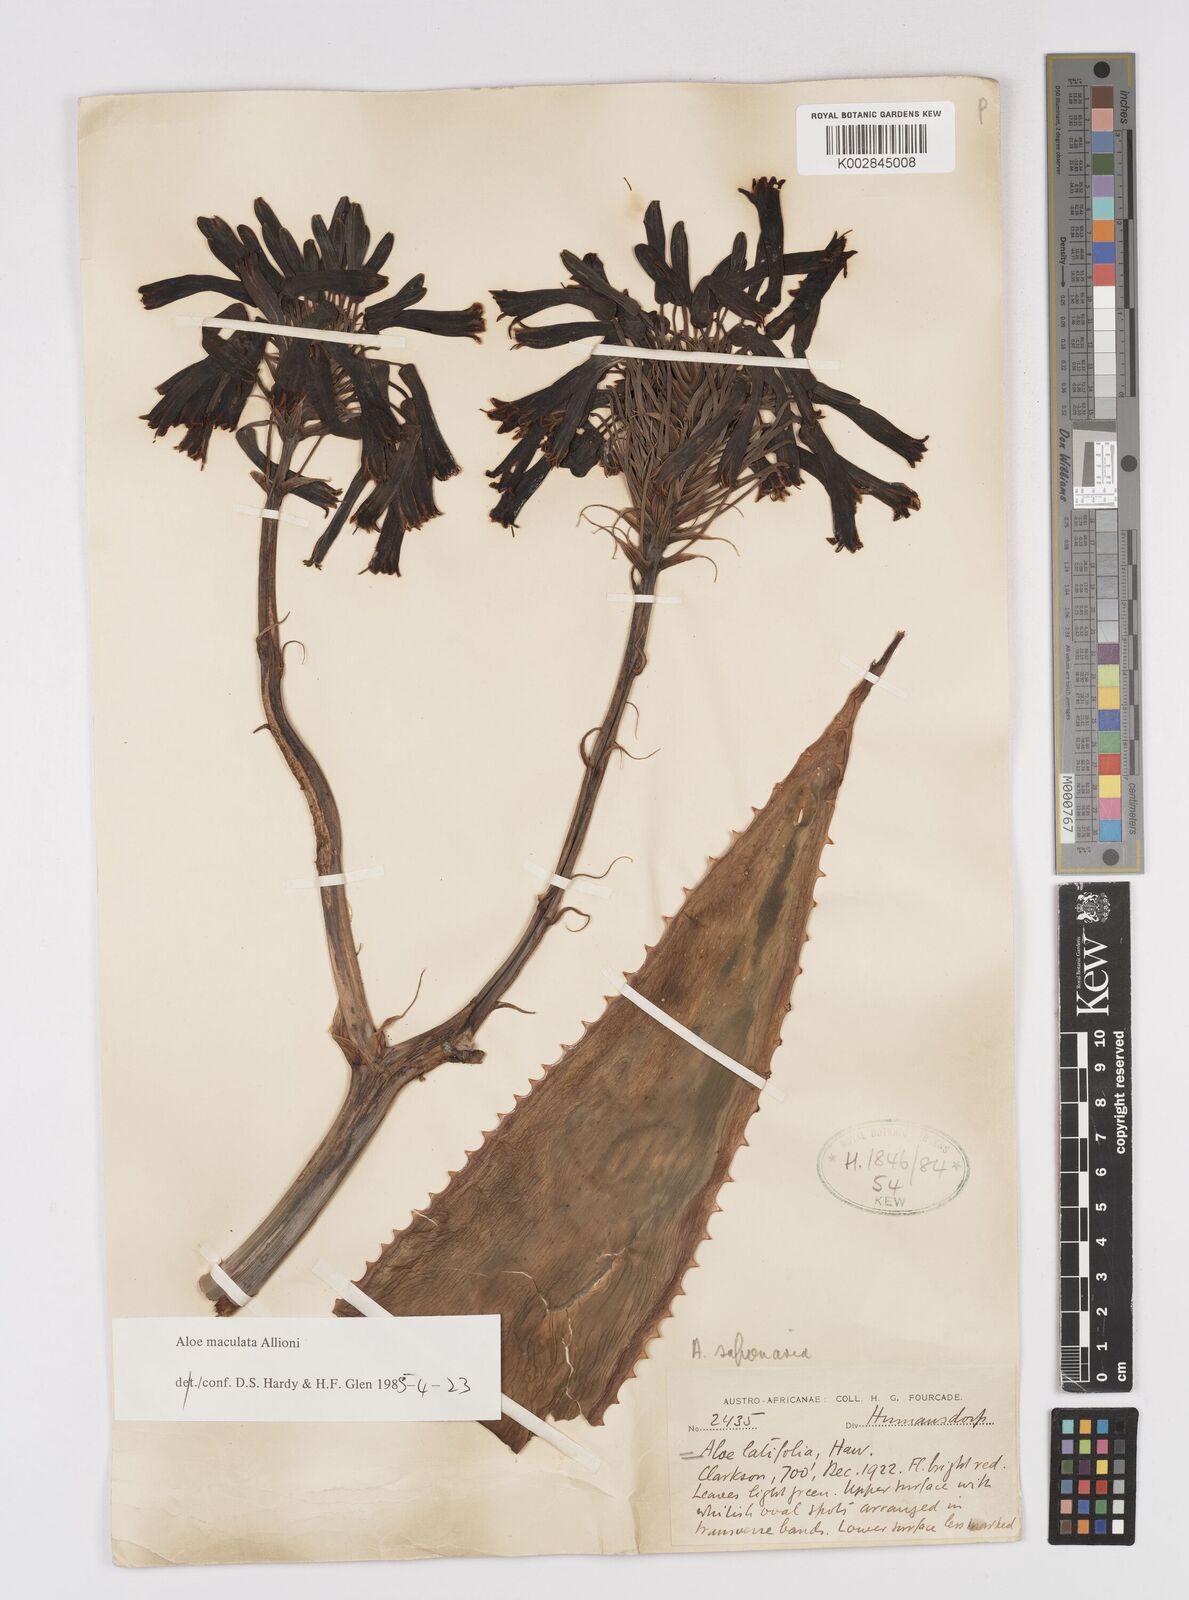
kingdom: Plantae
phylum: Tracheophyta
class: Liliopsida
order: Asparagales
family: Asphodelaceae
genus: Aloe
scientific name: Aloe microstigma
